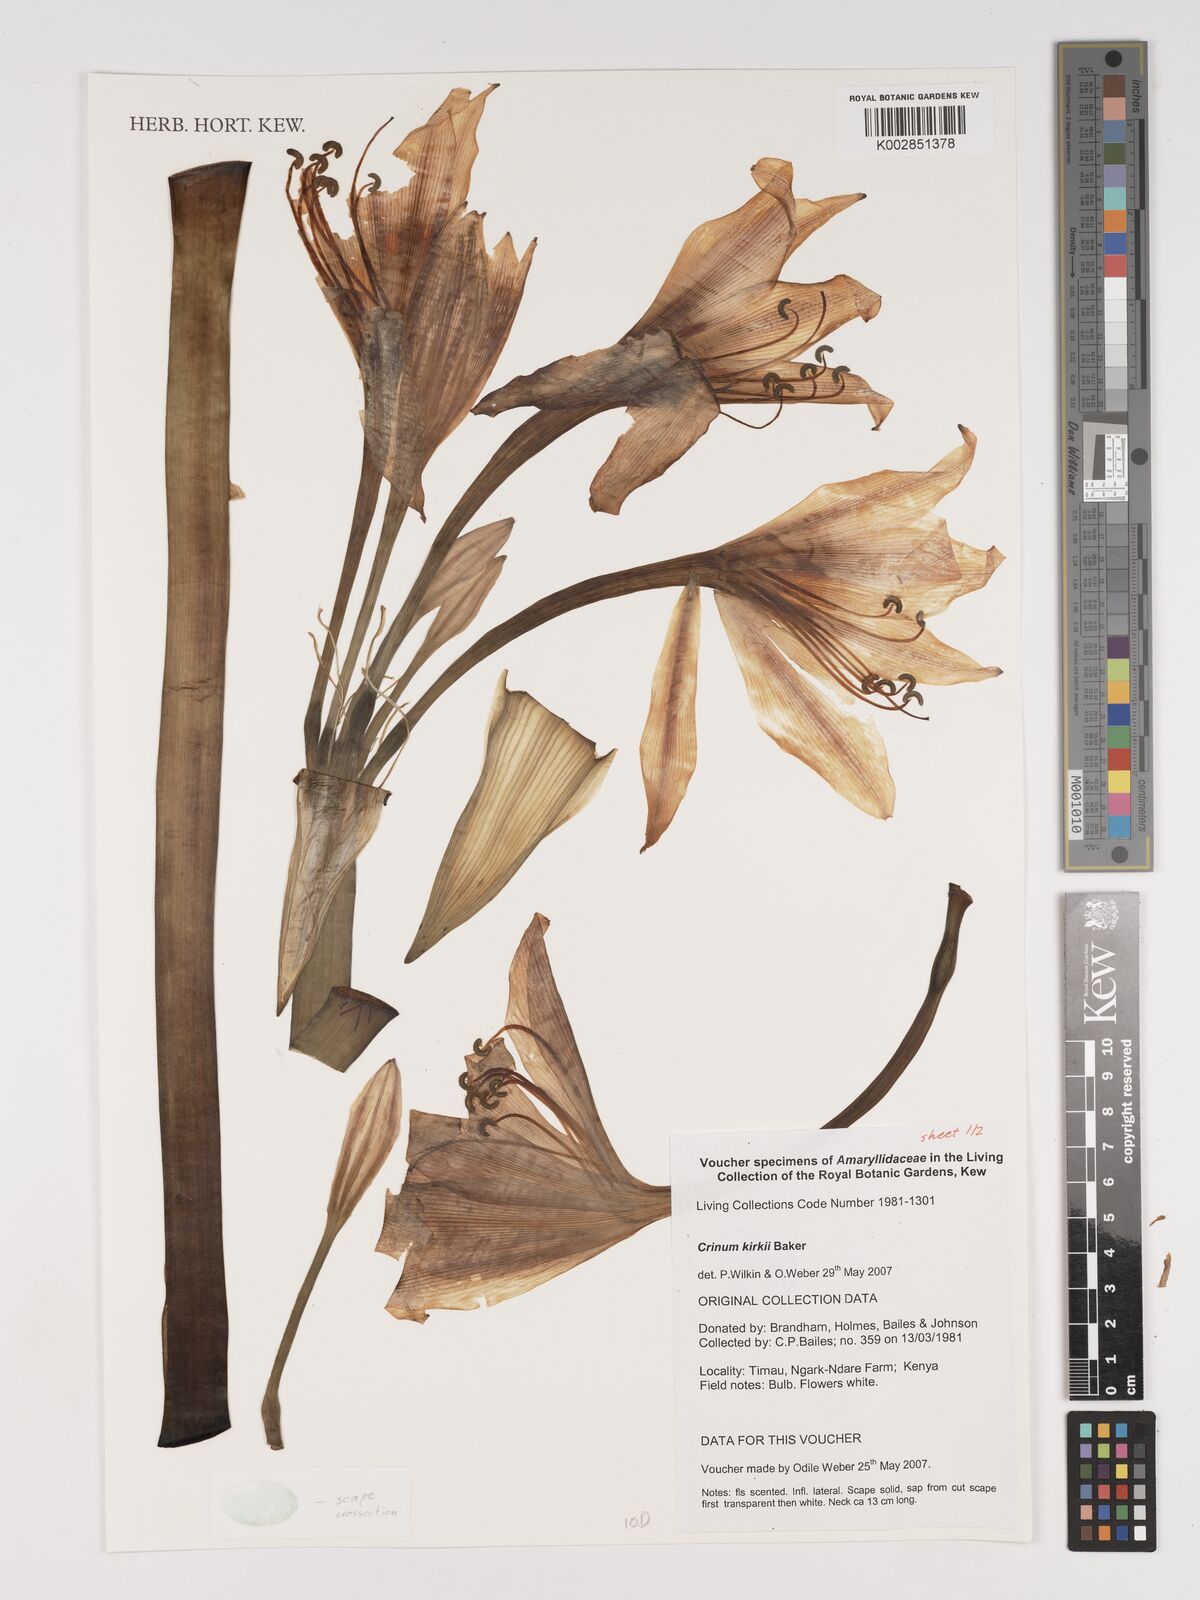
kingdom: Plantae
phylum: Tracheophyta
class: Liliopsida
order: Asparagales
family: Amaryllidaceae
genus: Crinum
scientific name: Crinum kirkii
